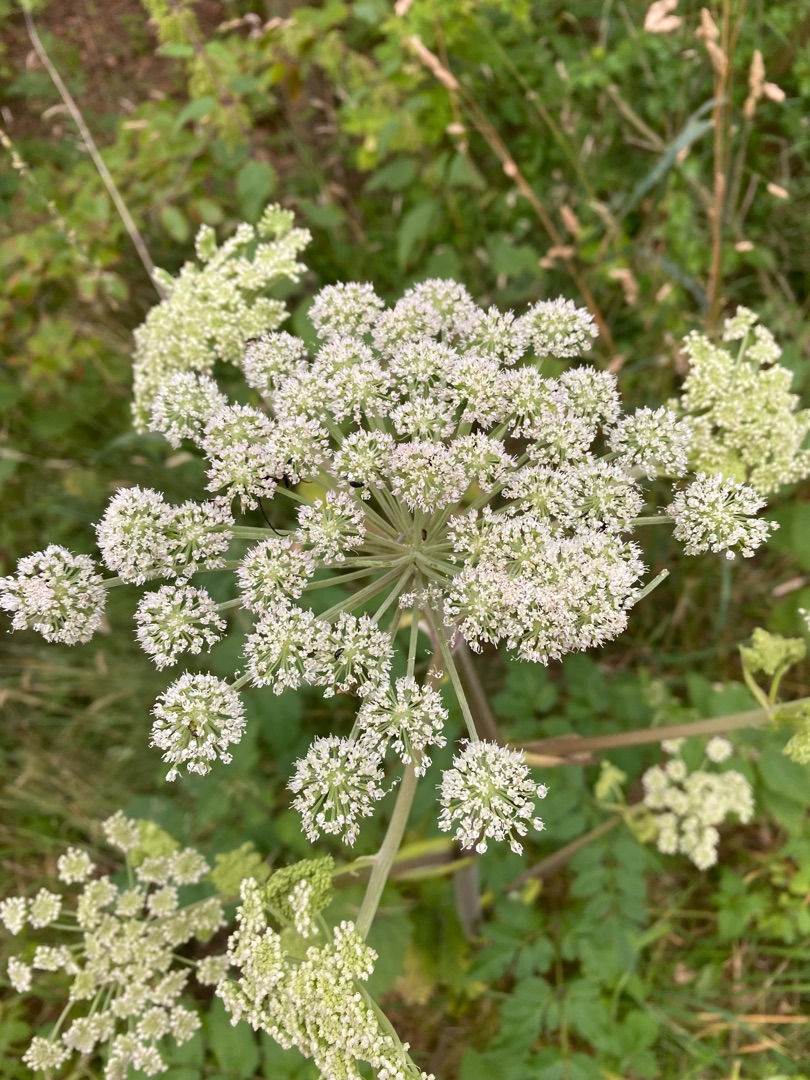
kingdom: Plantae
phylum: Tracheophyta
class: Magnoliopsida
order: Apiales
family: Apiaceae
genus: Angelica
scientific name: Angelica sylvestris
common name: Angelik
